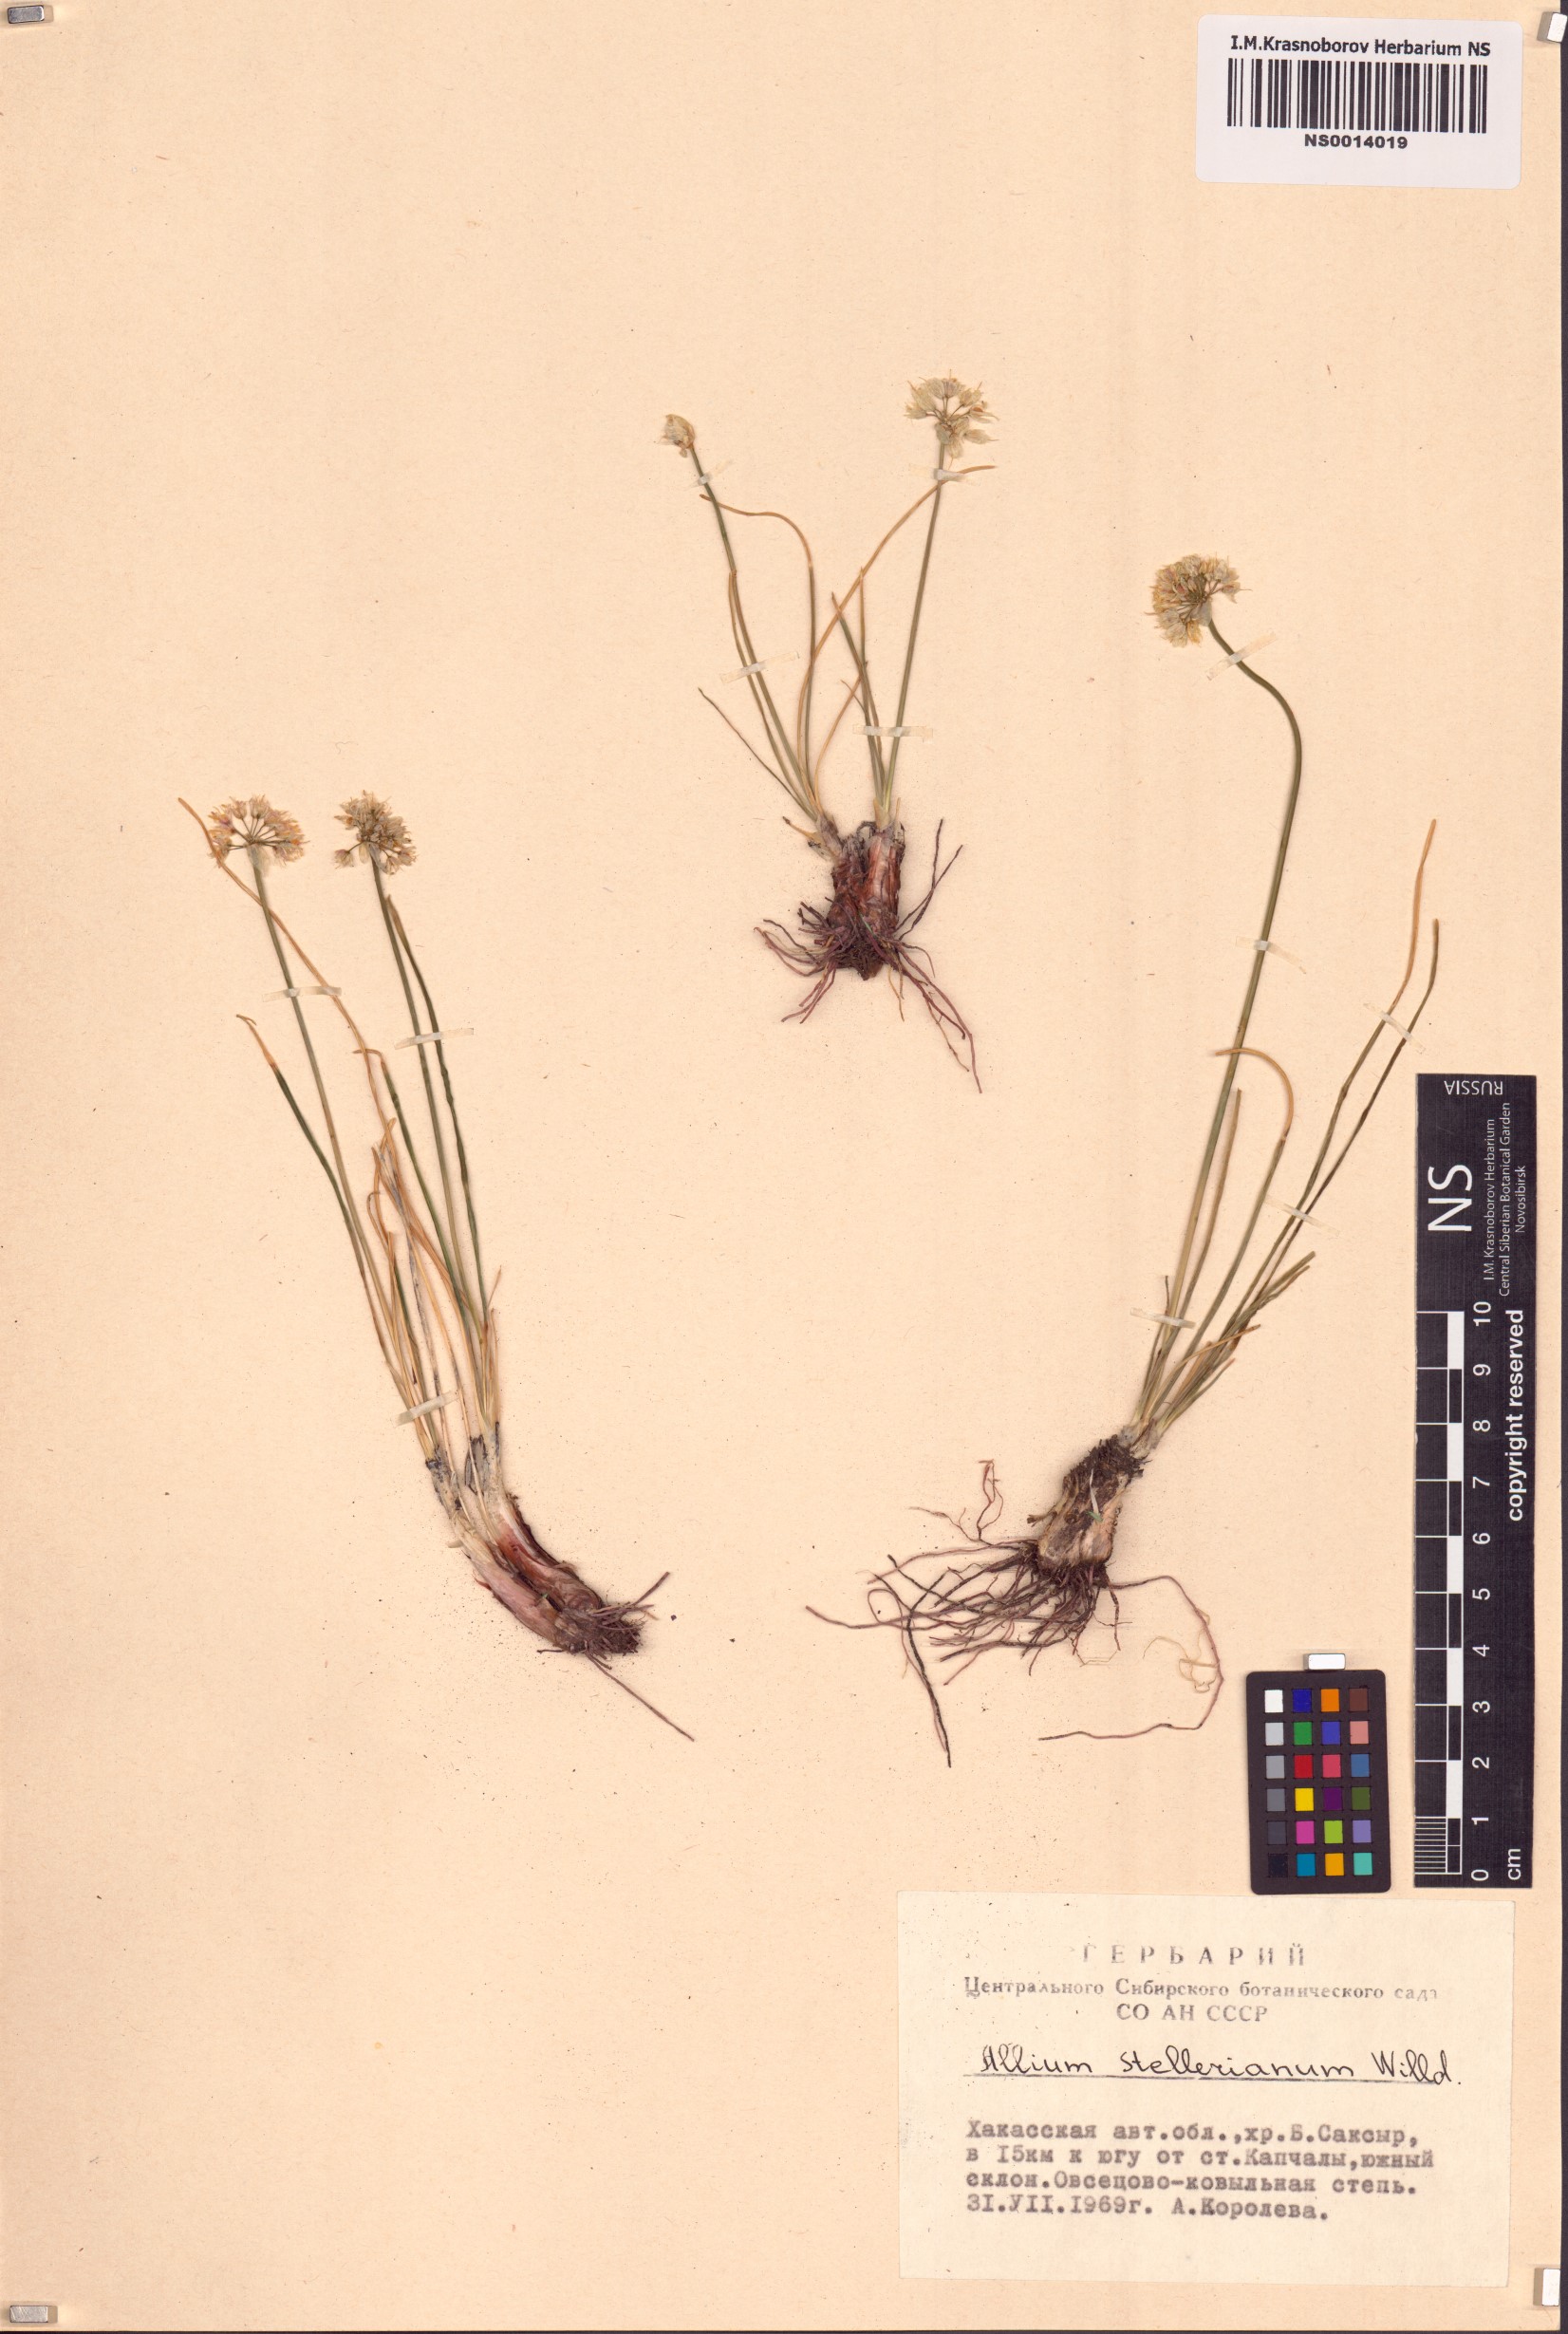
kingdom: Plantae
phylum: Tracheophyta
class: Liliopsida
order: Asparagales
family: Amaryllidaceae
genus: Allium
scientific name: Allium stellerianum
